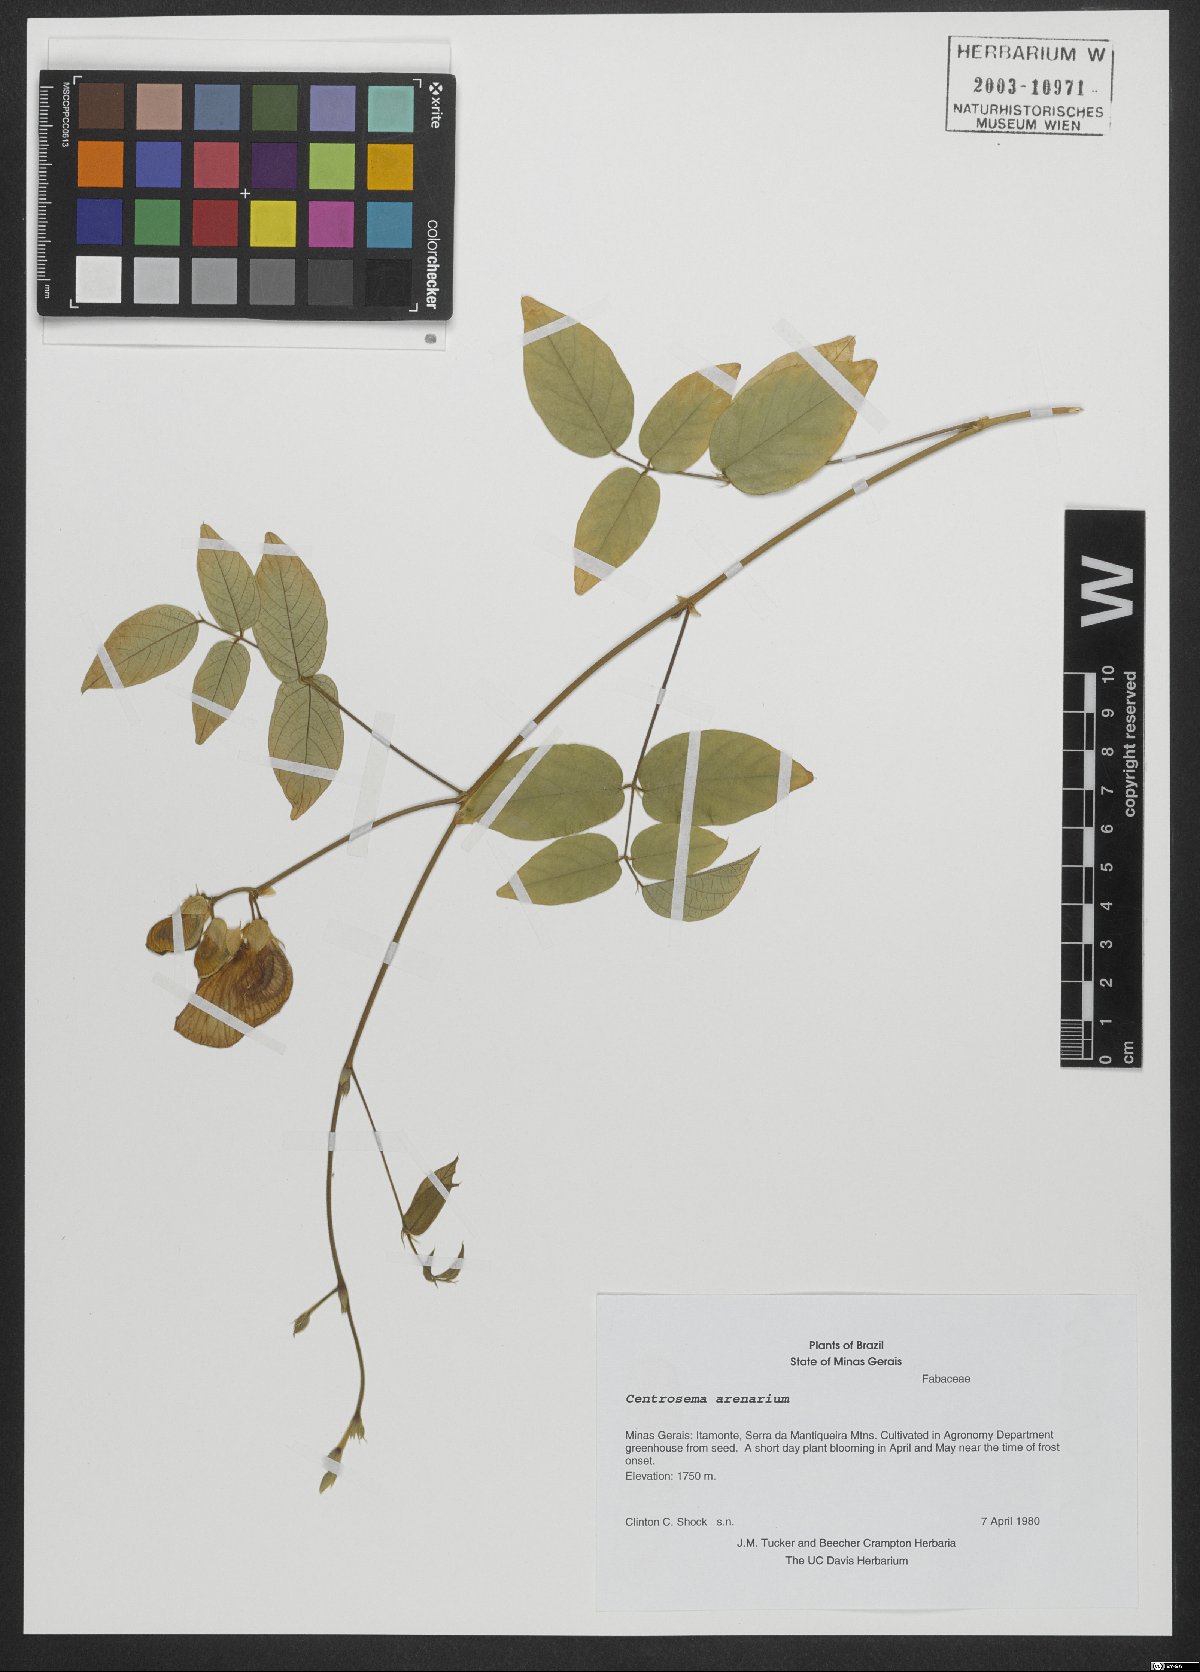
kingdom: Plantae
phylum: Tracheophyta
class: Magnoliopsida
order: Fabales
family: Fabaceae
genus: Centrosema
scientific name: Centrosema arenarium
